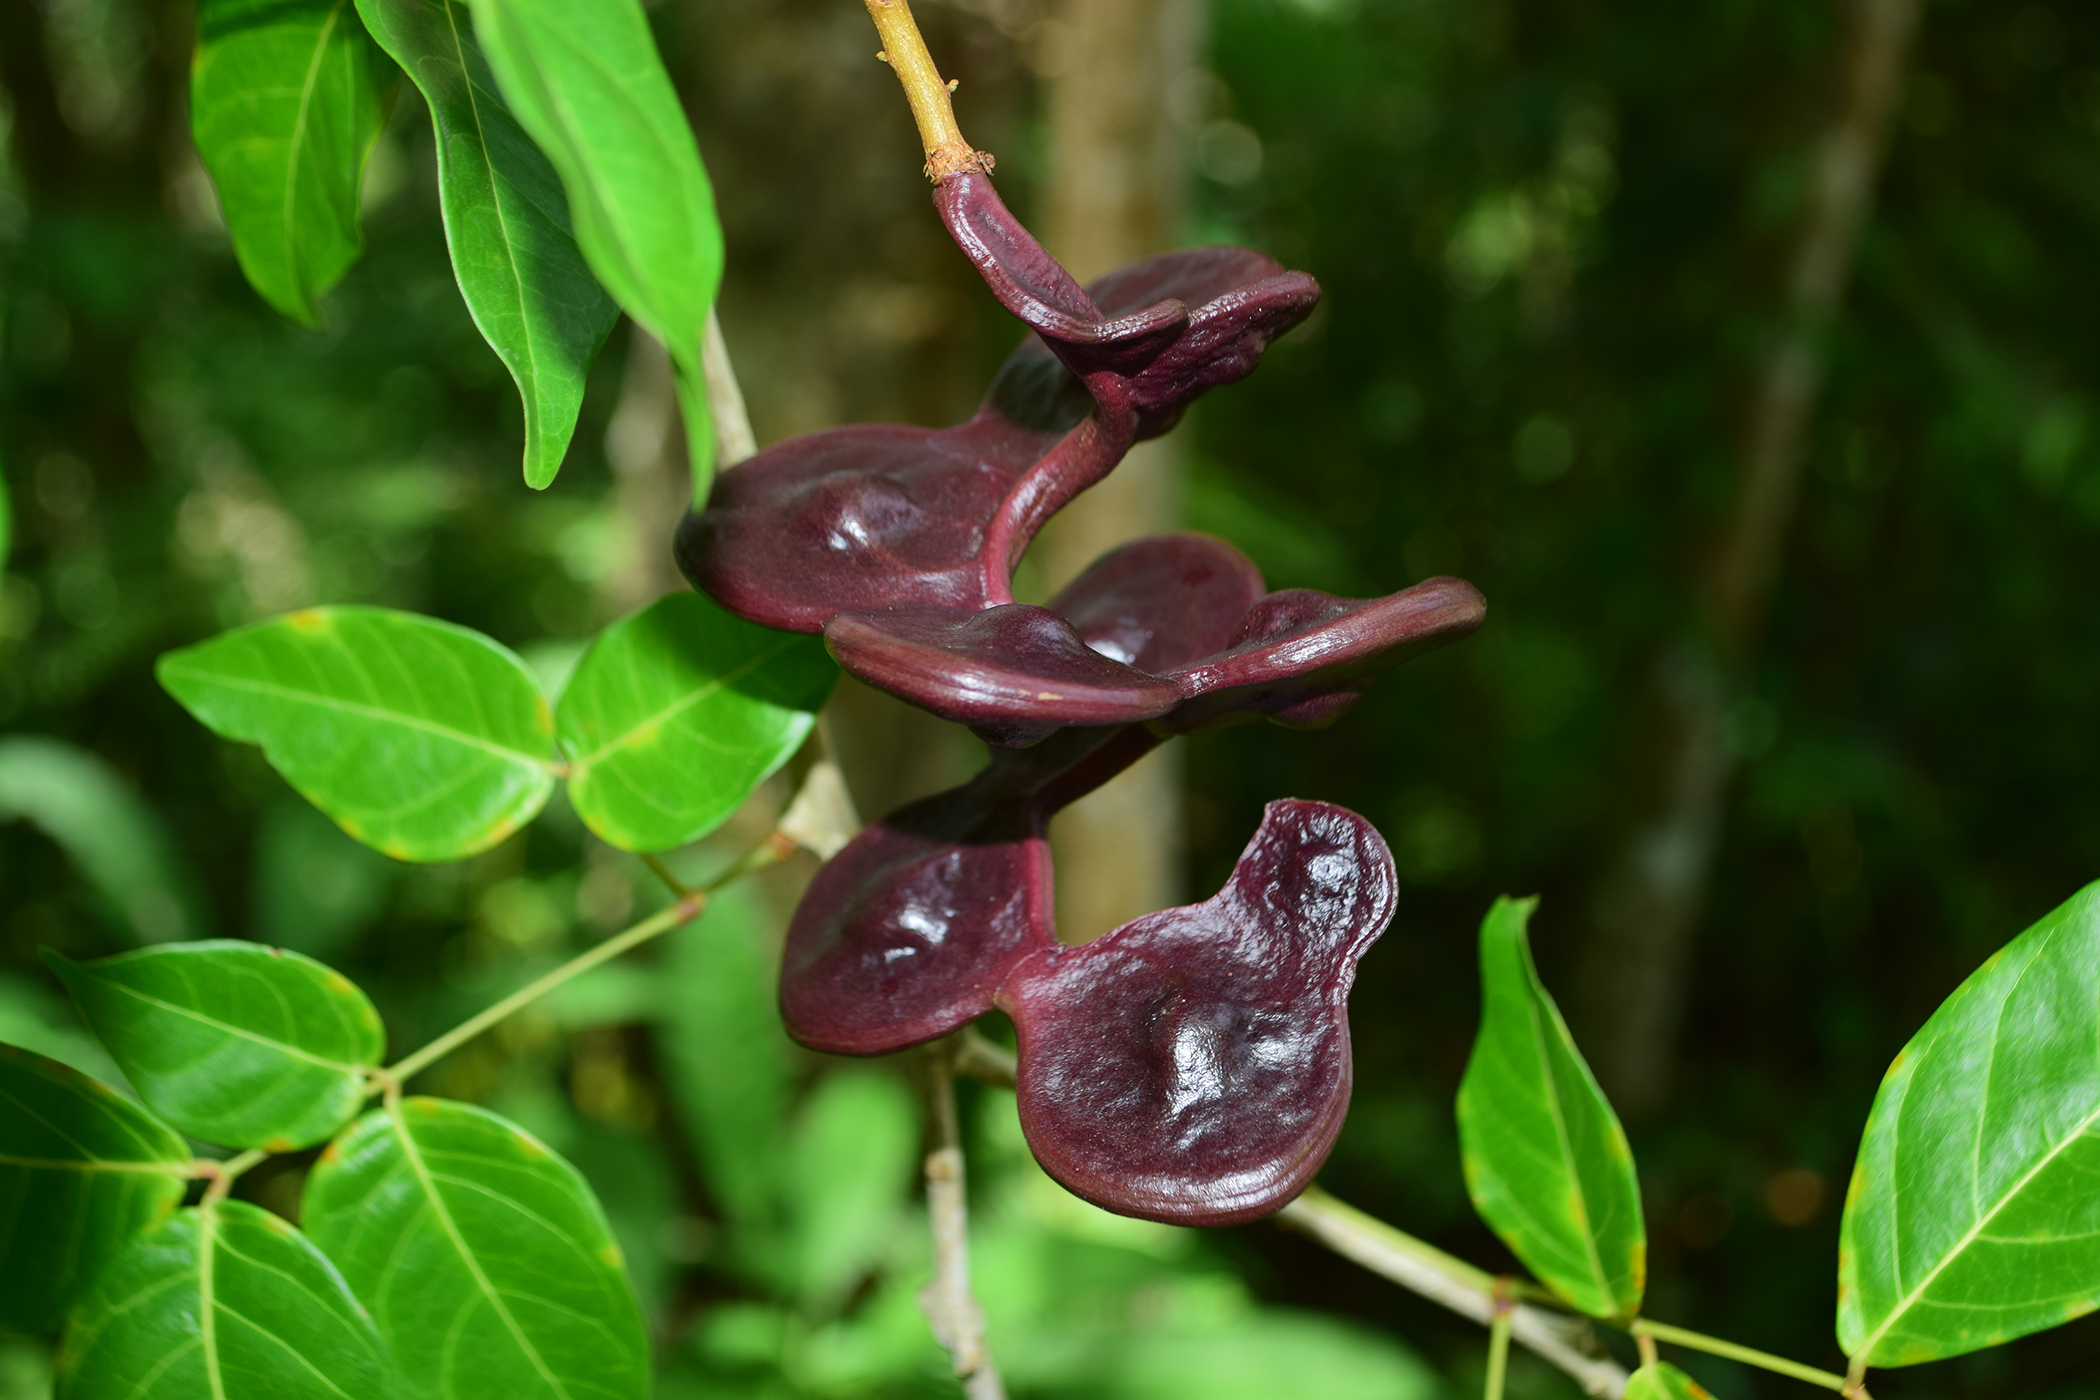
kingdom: Plantae
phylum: Tracheophyta
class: Magnoliopsida
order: Fabales
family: Fabaceae
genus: Archidendron
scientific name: Archidendron jiringa
